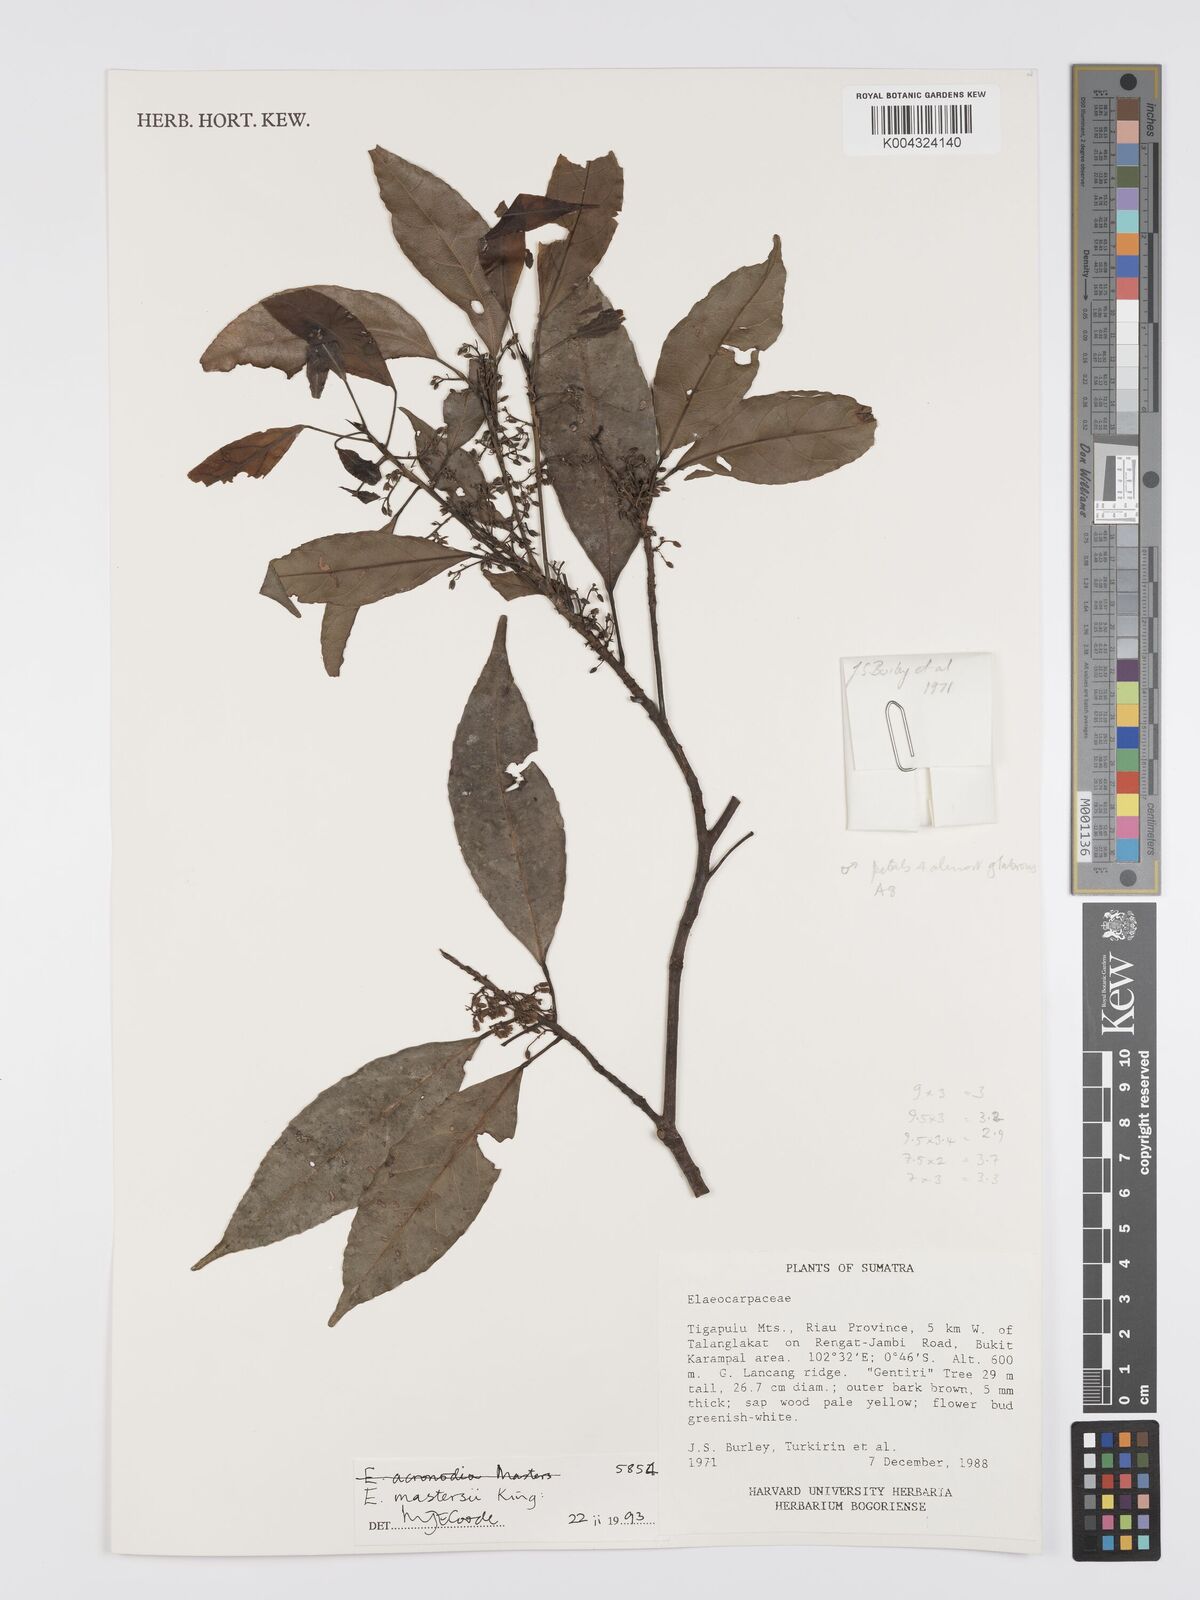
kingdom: Plantae
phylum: Tracheophyta
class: Magnoliopsida
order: Oxalidales
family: Elaeocarpaceae
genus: Elaeocarpus
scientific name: Elaeocarpus mastersii
